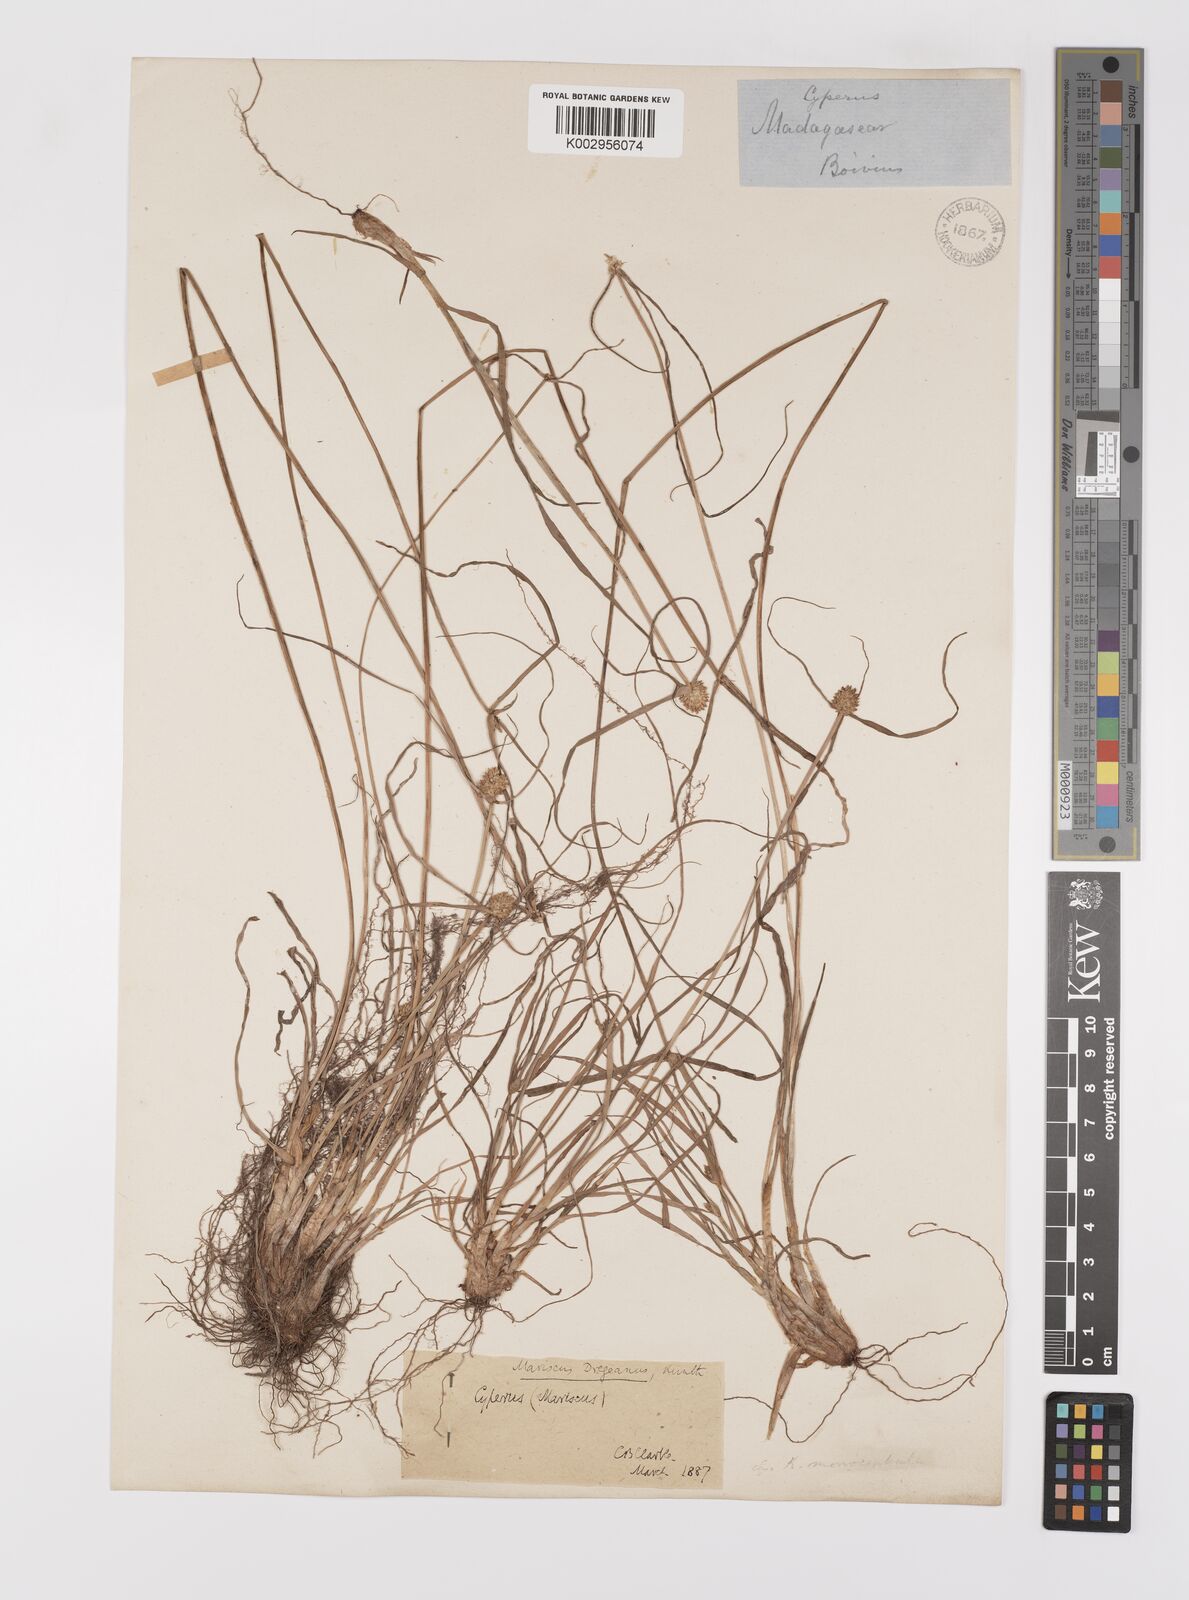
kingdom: Plantae
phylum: Tracheophyta
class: Liliopsida
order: Poales
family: Cyperaceae
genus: Cyperus
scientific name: Cyperus dubius
